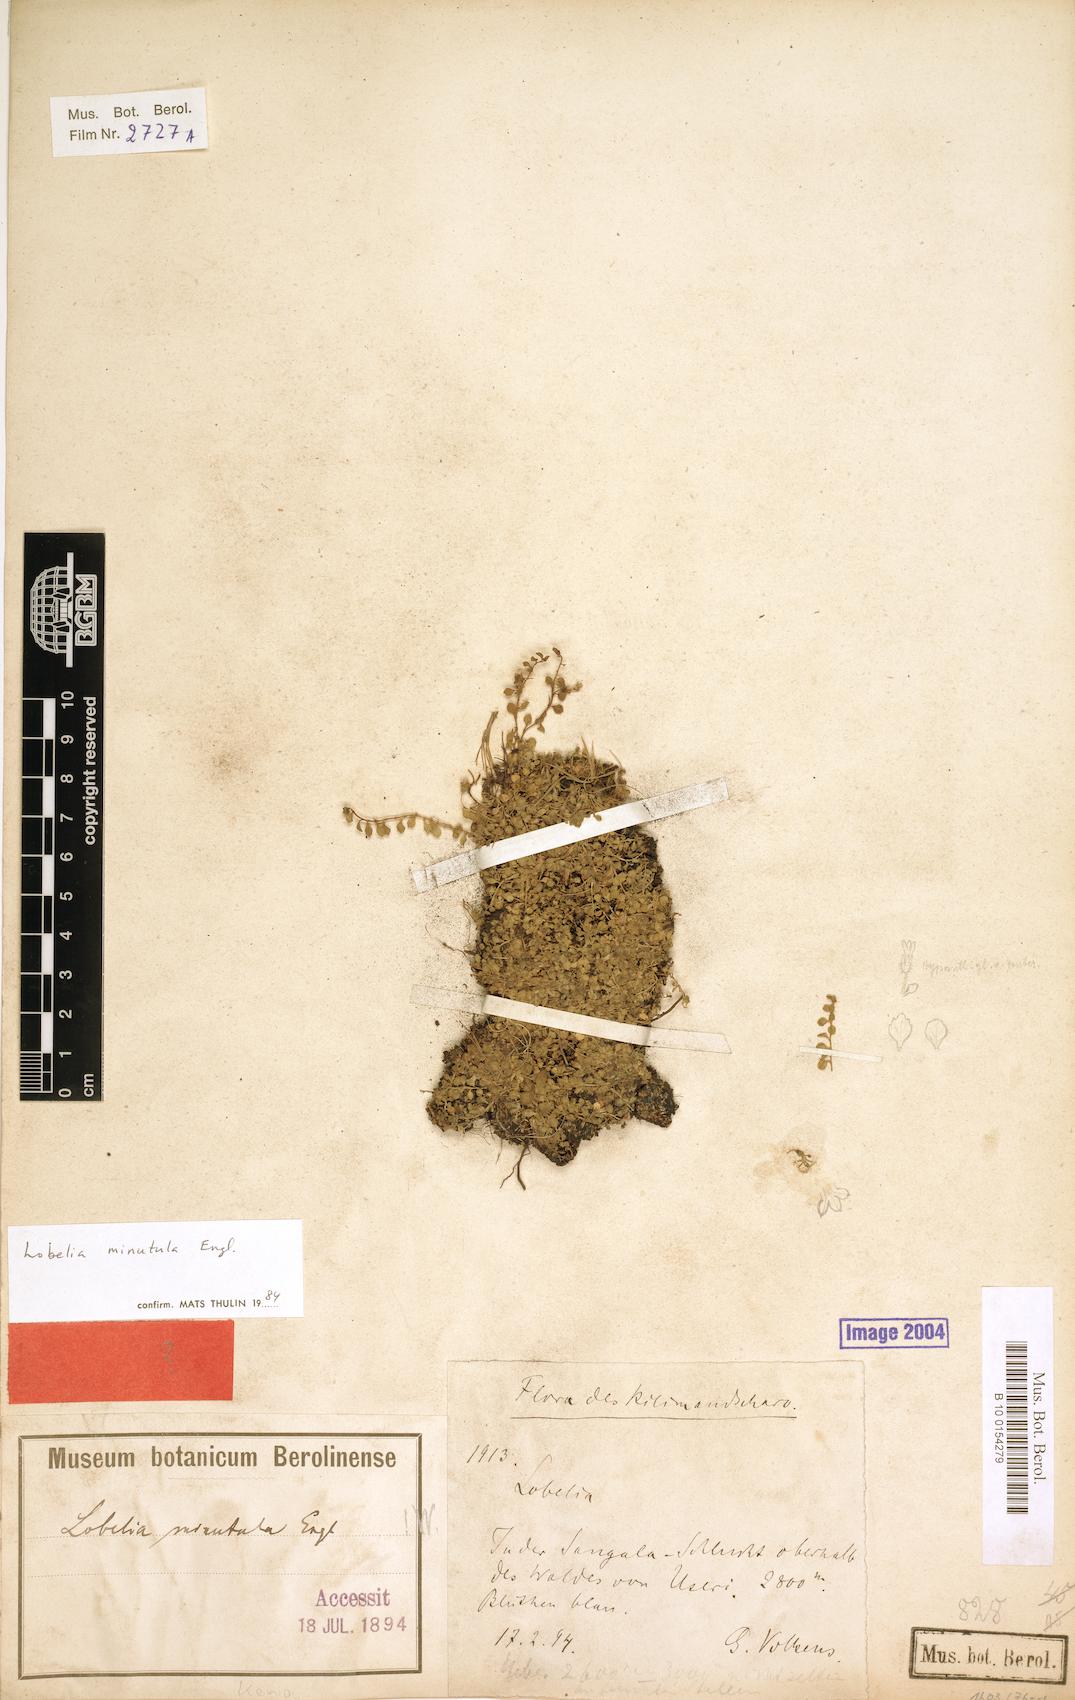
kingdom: Plantae
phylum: Tracheophyta
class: Magnoliopsida
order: Asterales
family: Campanulaceae
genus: Lobelia
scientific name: Lobelia minutula
